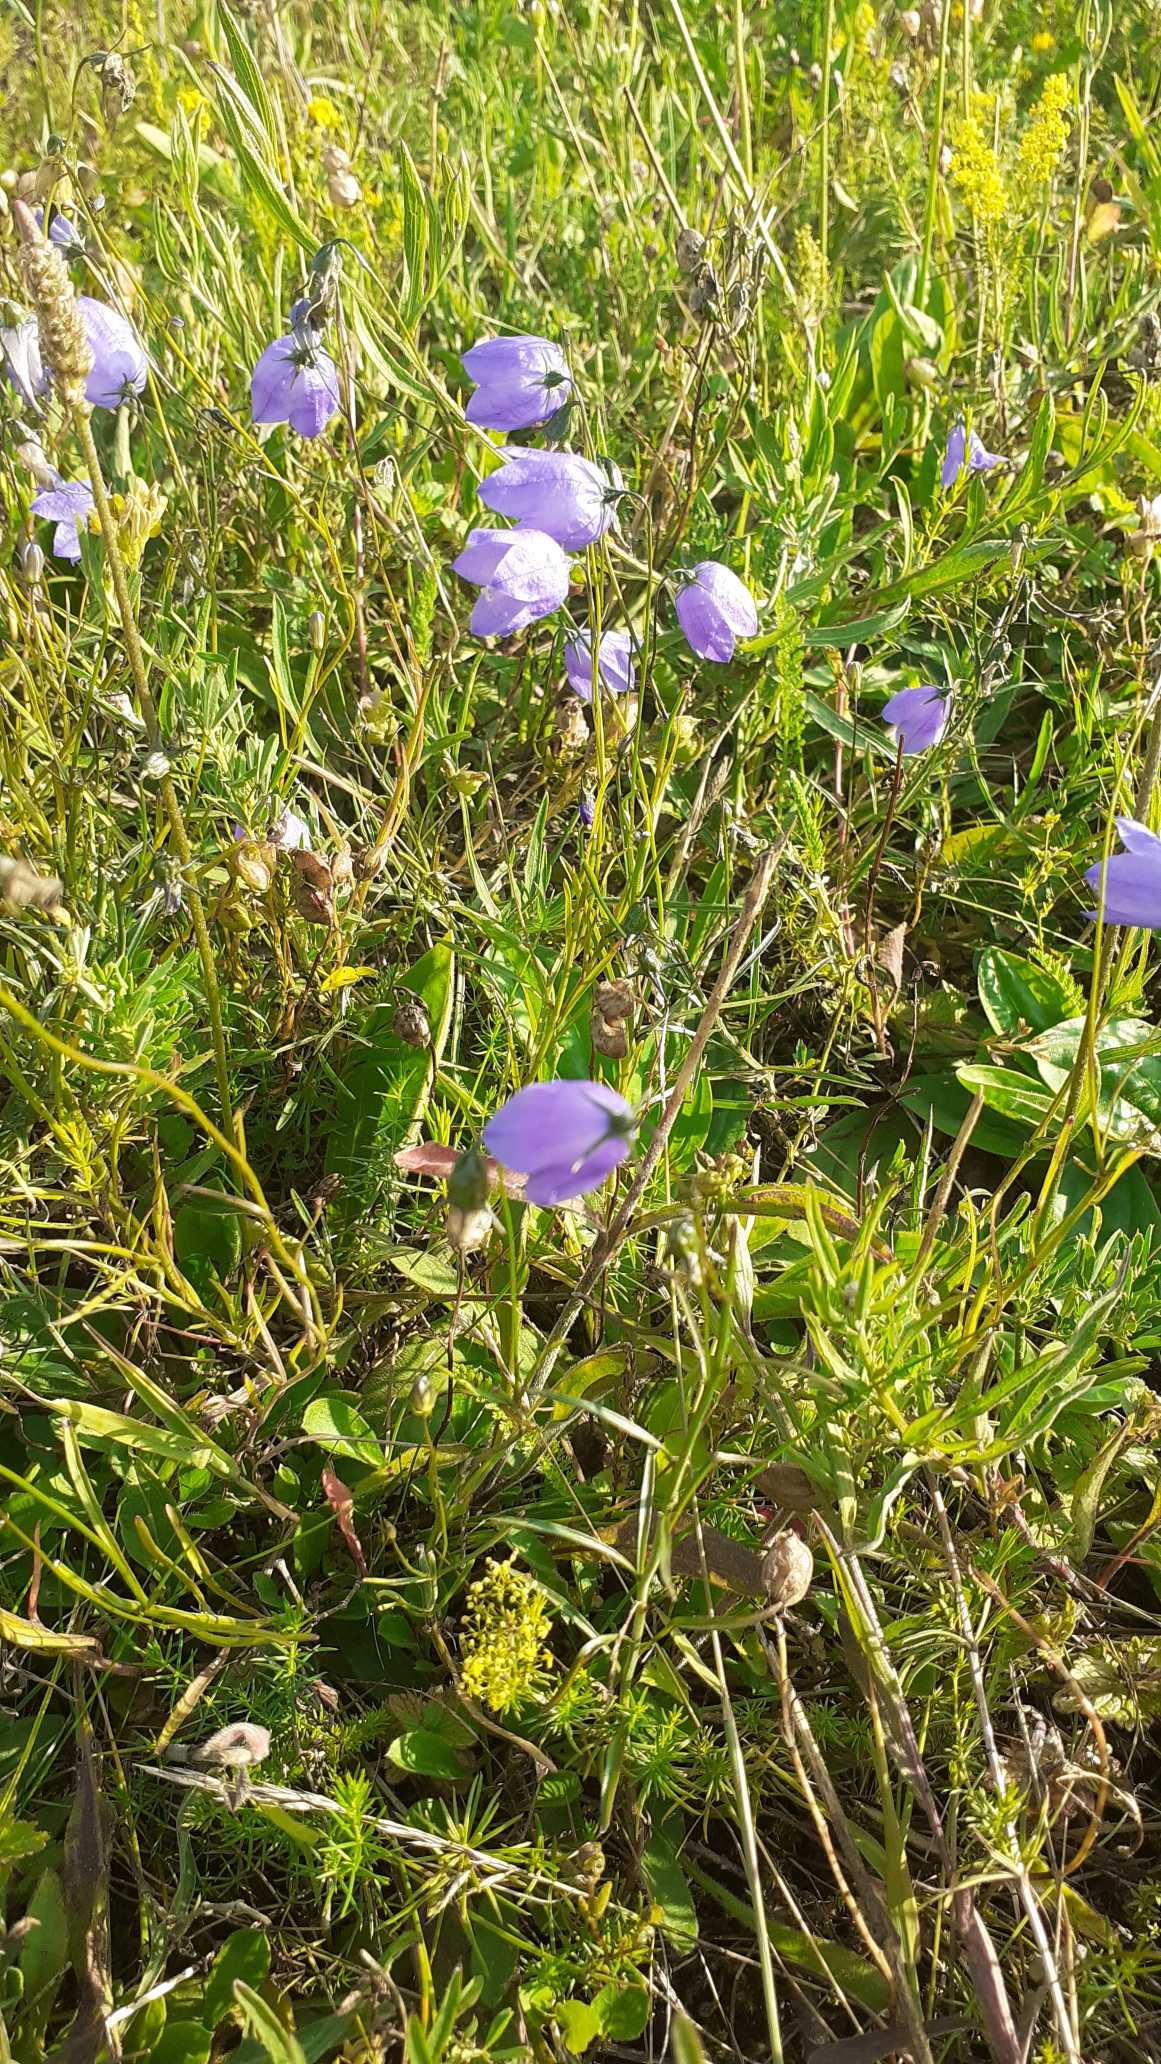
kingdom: Plantae
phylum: Tracheophyta
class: Magnoliopsida
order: Asterales
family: Campanulaceae
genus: Campanula
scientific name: Campanula rotundifolia
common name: Liden klokke
